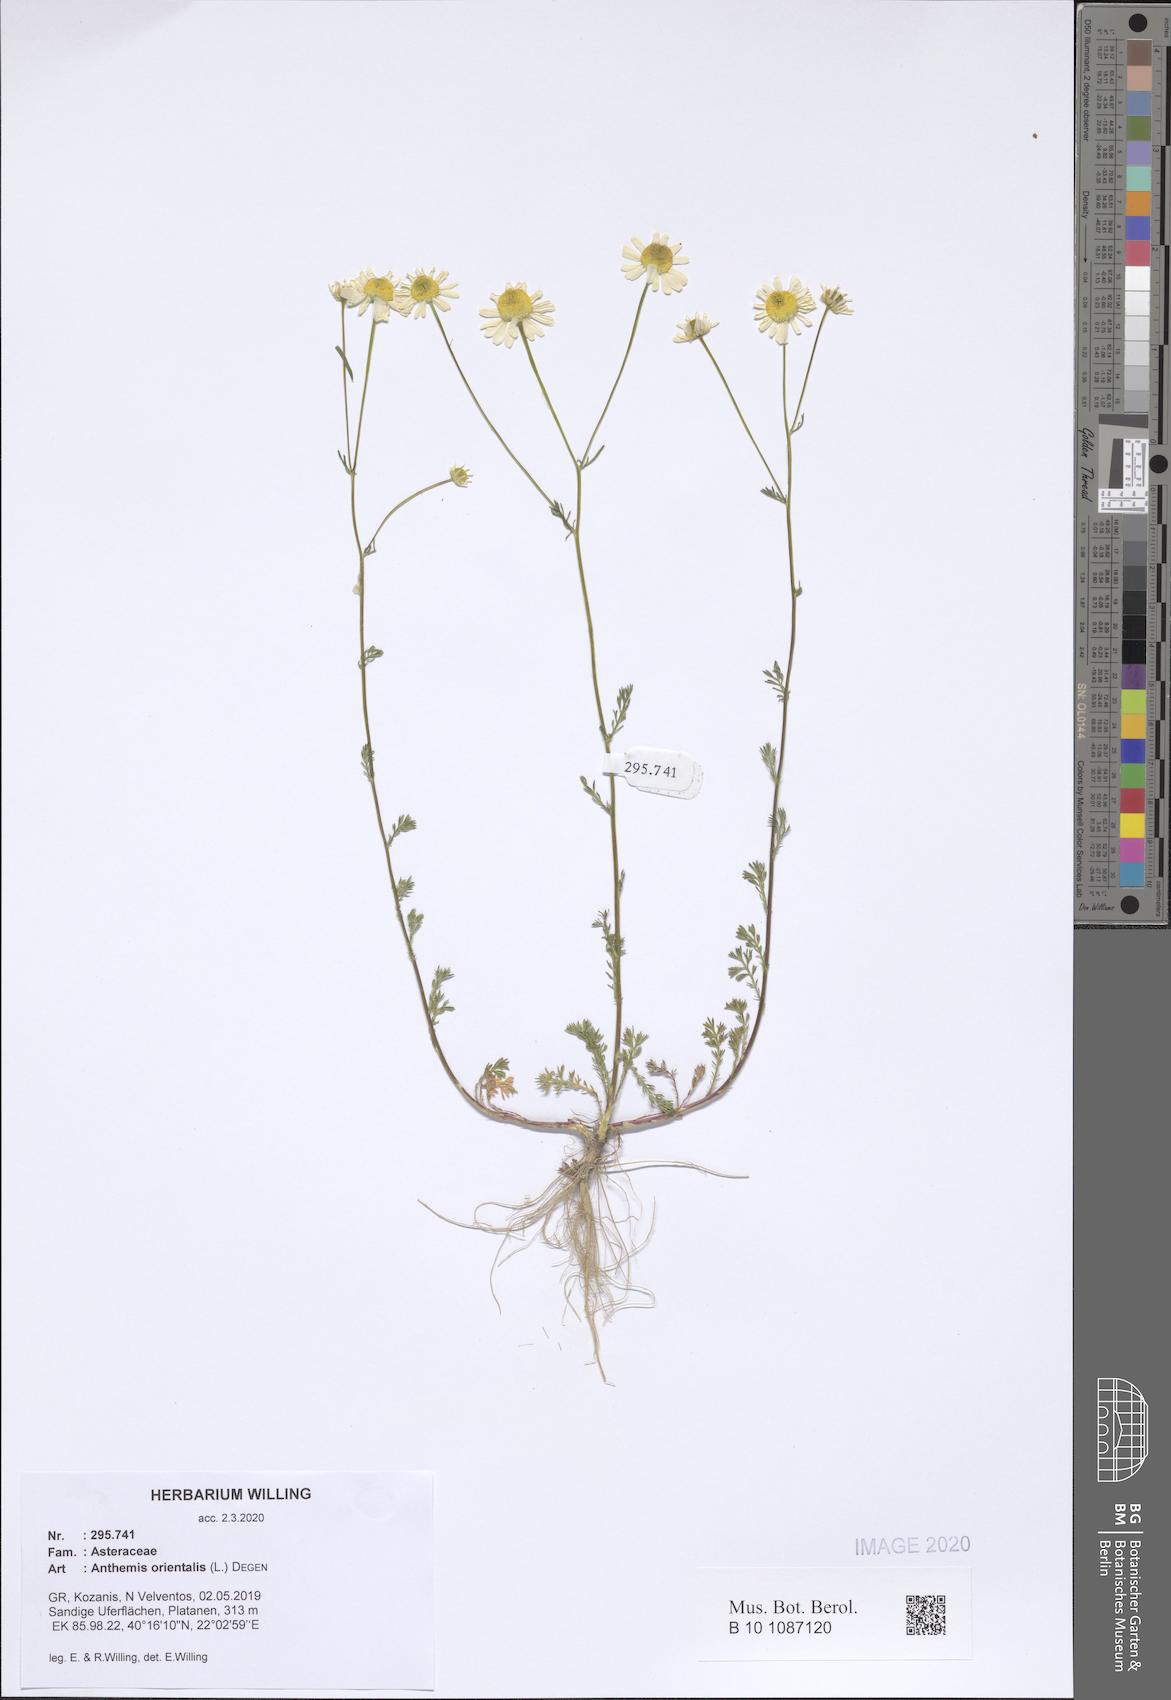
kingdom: Plantae
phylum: Tracheophyta
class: Magnoliopsida
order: Asterales
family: Asteraceae
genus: Matricaria
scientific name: Matricaria chamomilla
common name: Scented mayweed
